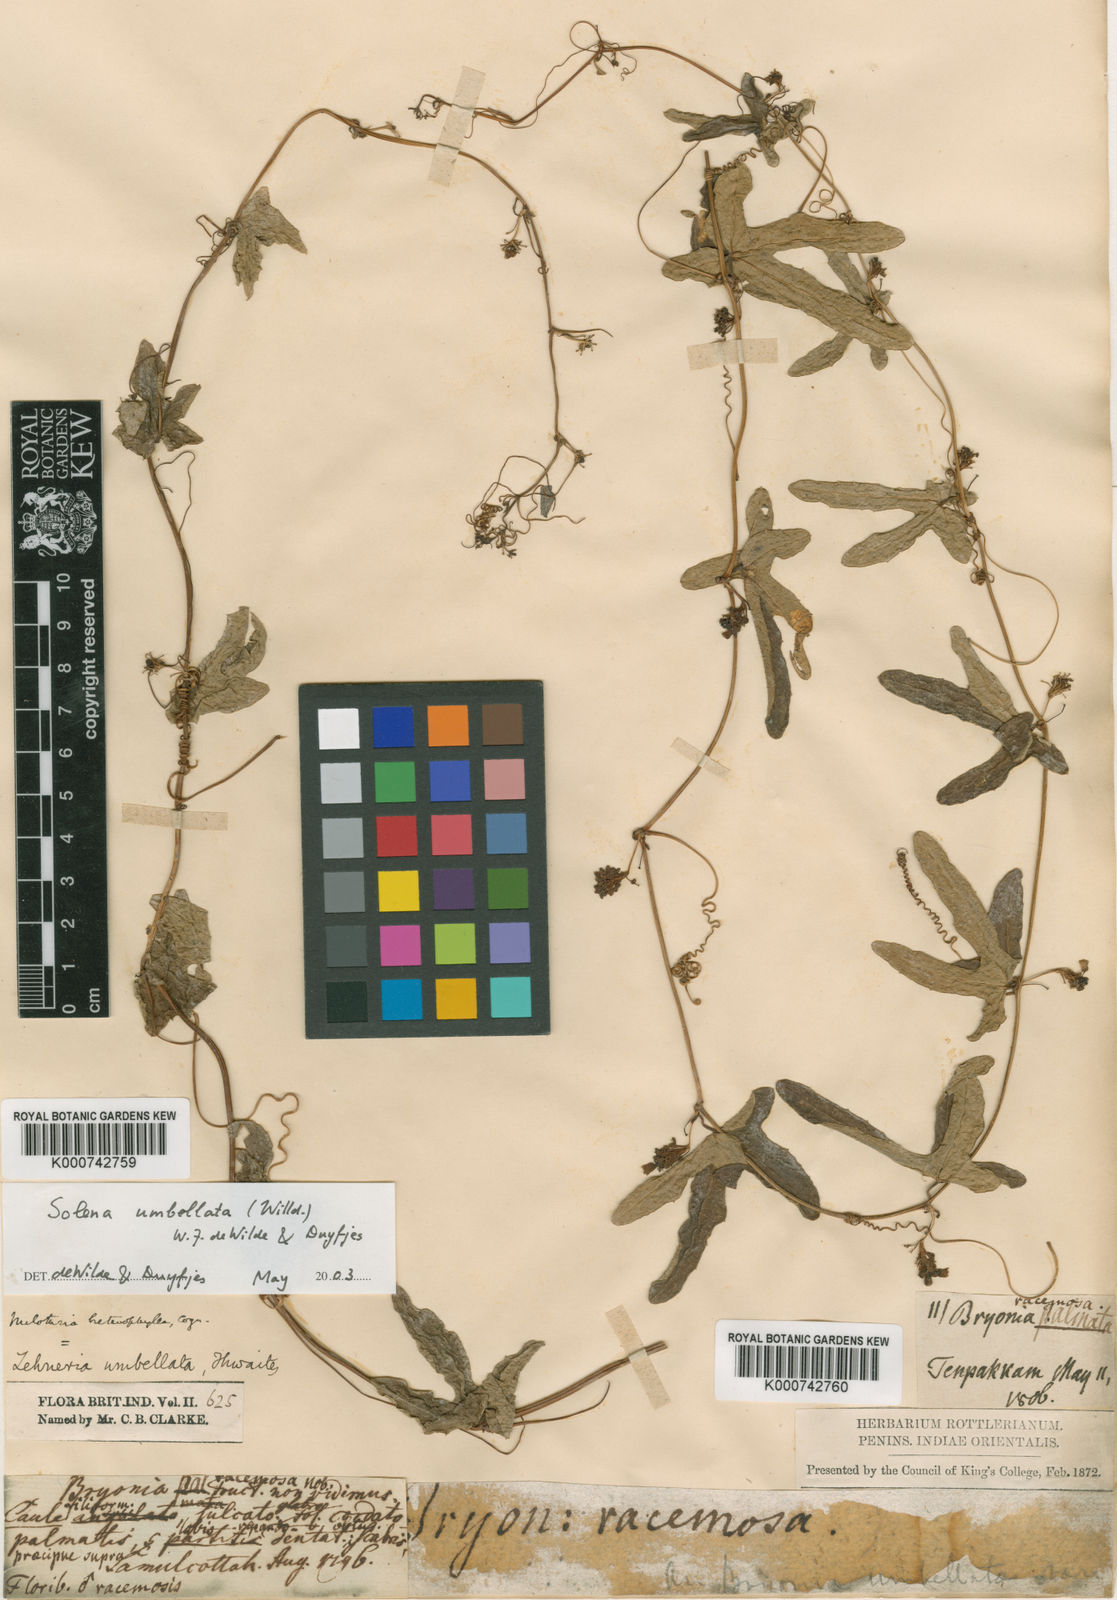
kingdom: Plantae
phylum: Tracheophyta
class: Magnoliopsida
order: Cucurbitales
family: Cucurbitaceae
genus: Solena
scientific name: Solena umbellata
